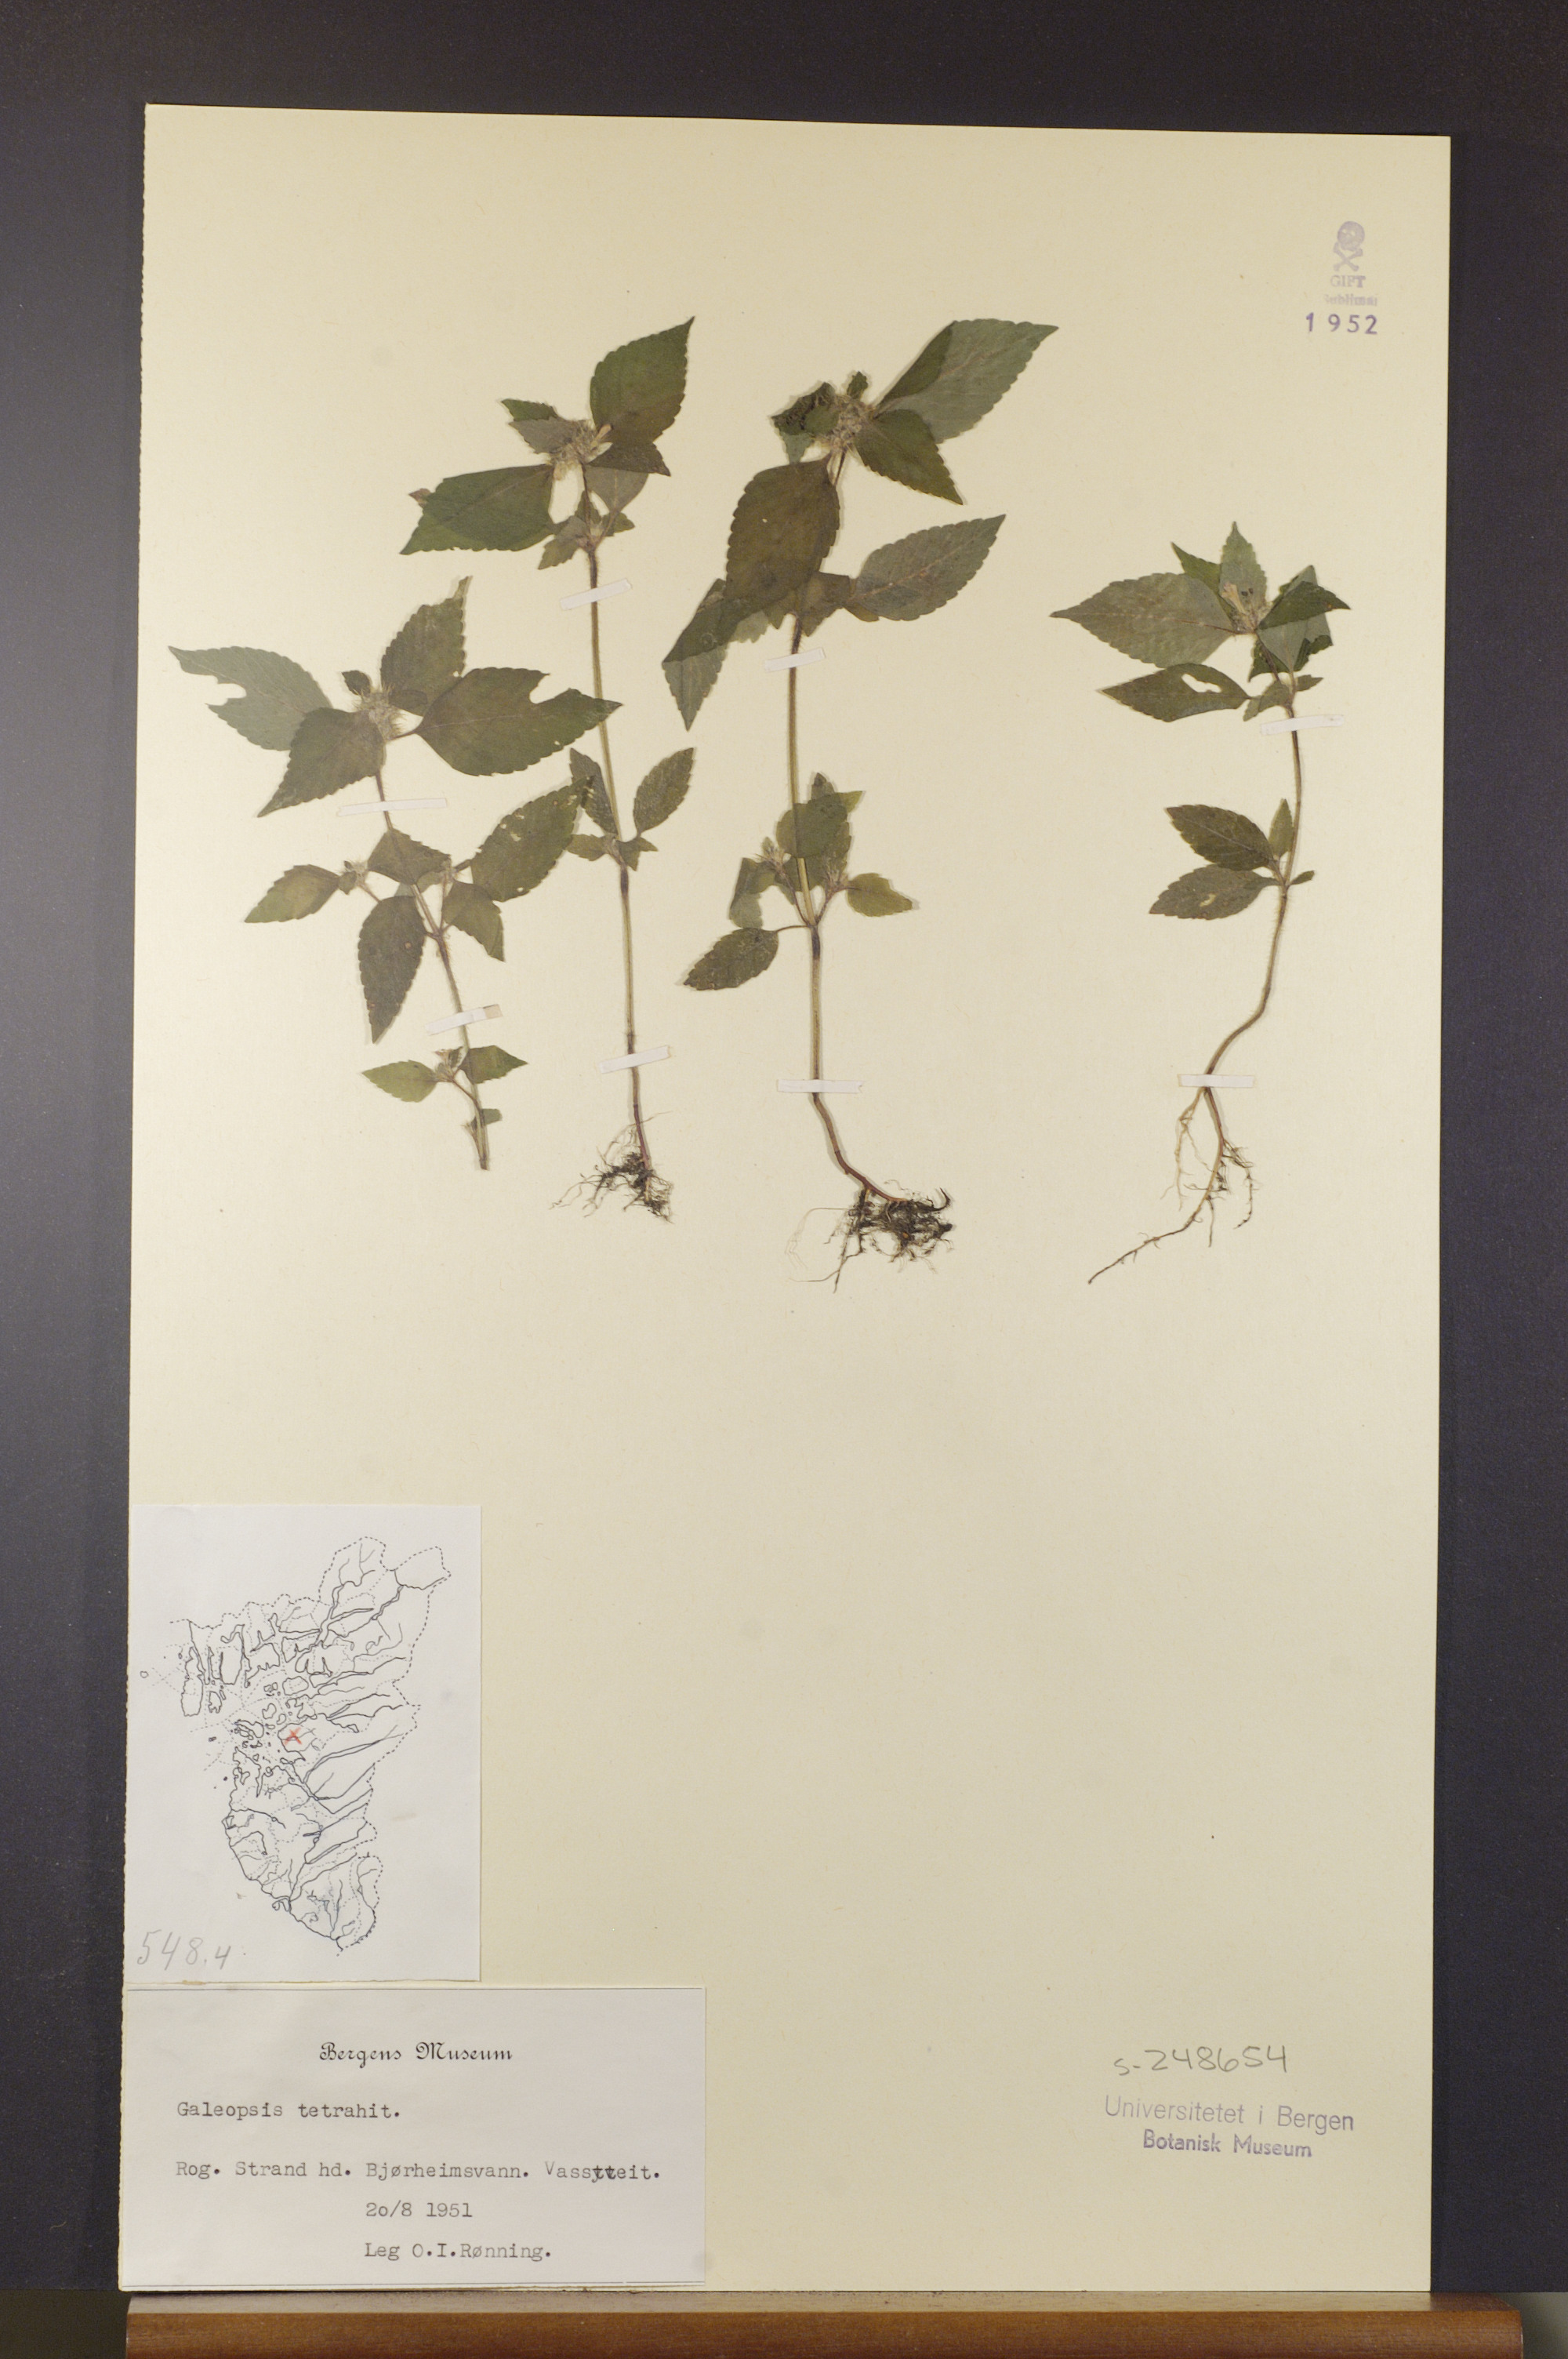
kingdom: Plantae
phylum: Tracheophyta
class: Magnoliopsida
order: Lamiales
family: Lamiaceae
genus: Galeopsis
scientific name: Galeopsis tetrahit
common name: Common hemp-nettle
